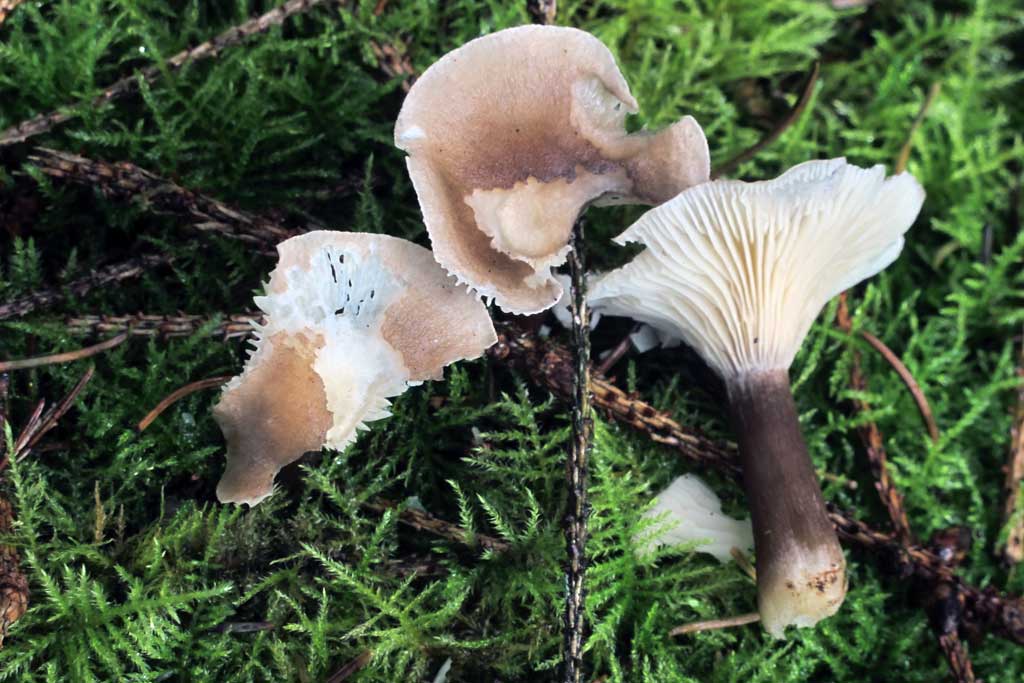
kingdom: Fungi
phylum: Basidiomycota
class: Agaricomycetes
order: Agaricales
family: Hygrophoraceae
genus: Ampulloclitocybe
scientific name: Ampulloclitocybe clavipes
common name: køllefod
